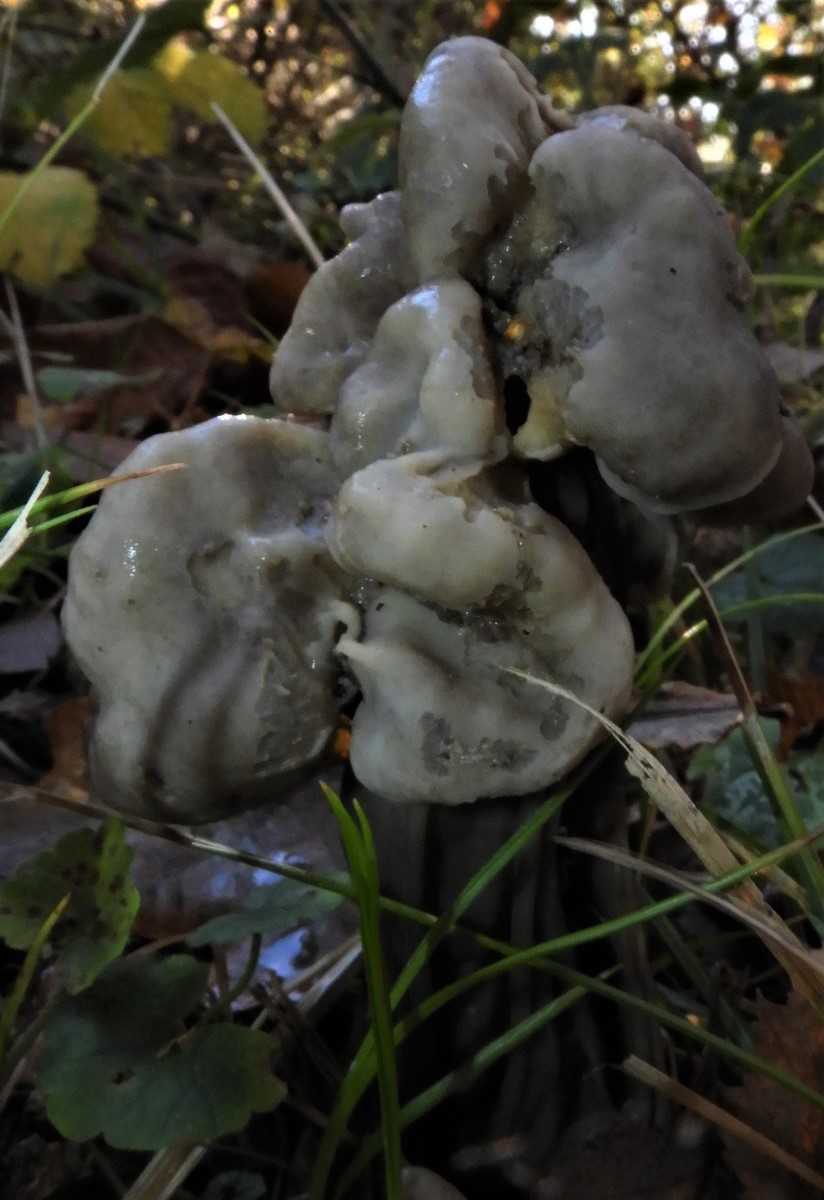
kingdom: Fungi
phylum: Ascomycota
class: Pezizomycetes
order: Pezizales
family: Helvellaceae
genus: Helvella
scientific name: Helvella lacunosa
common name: grubet foldhat
